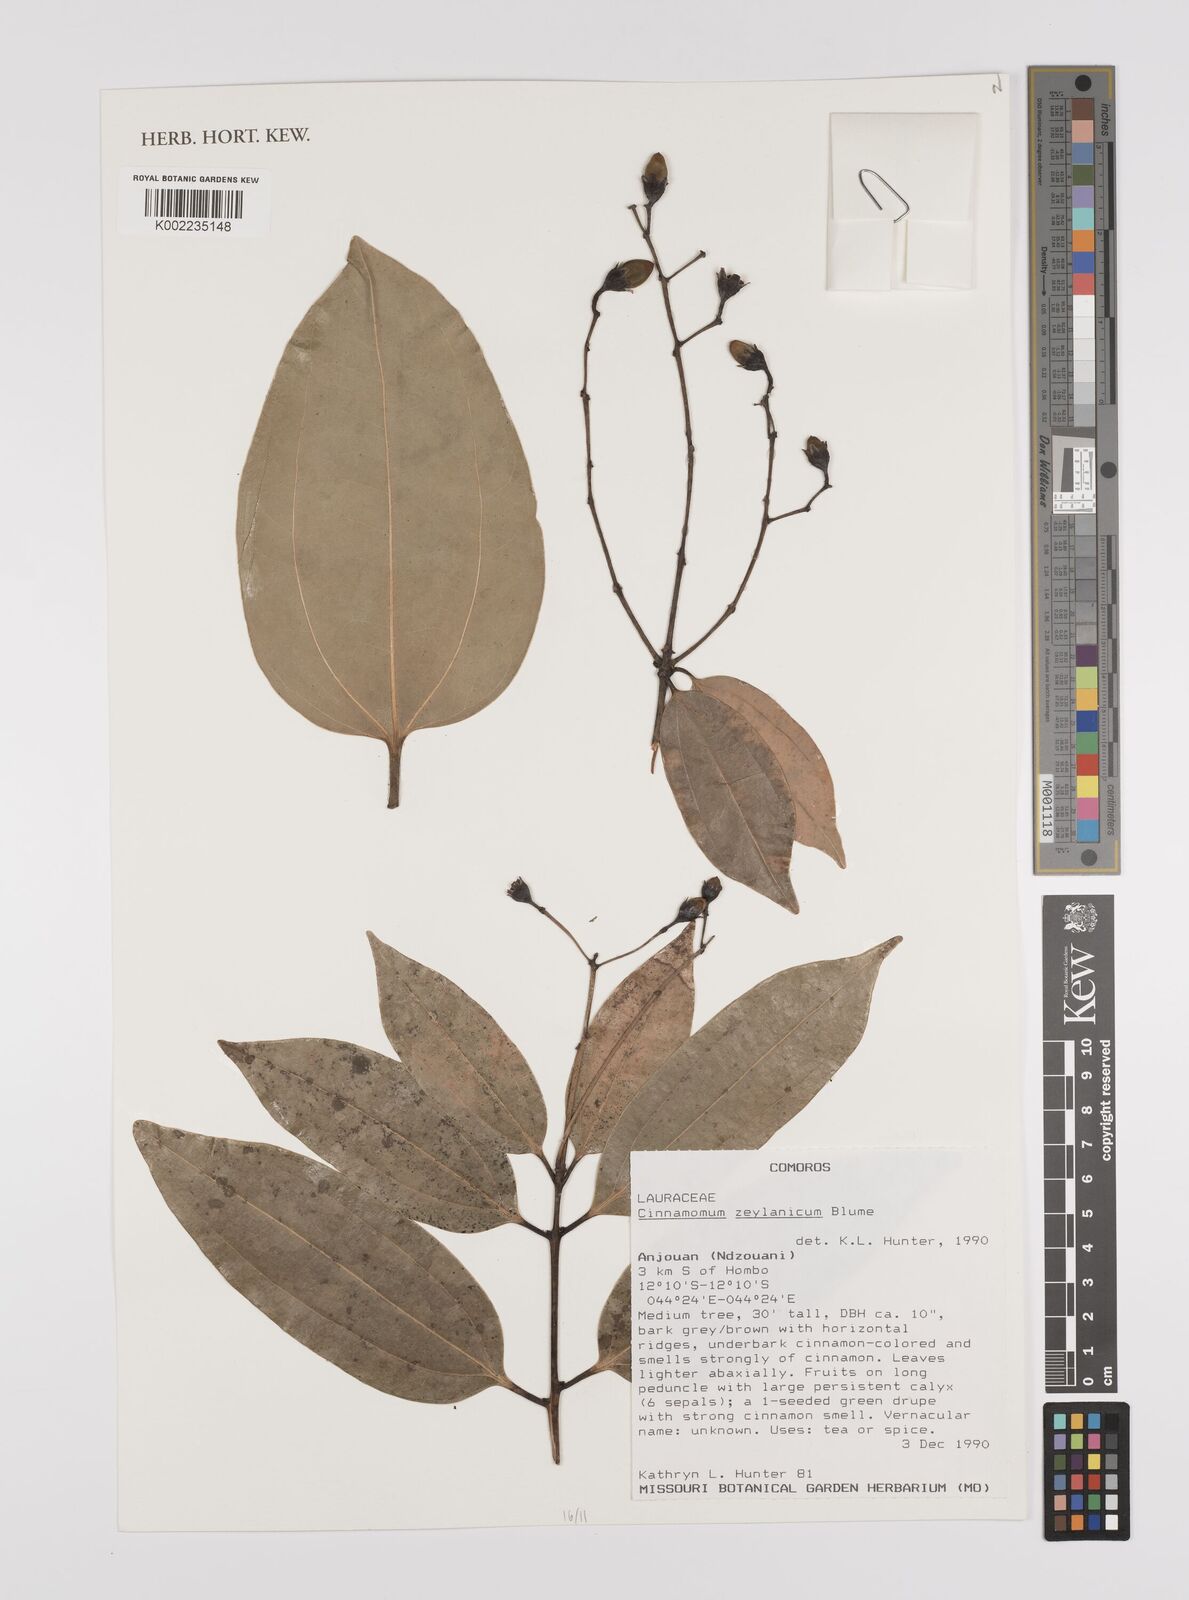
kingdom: Plantae
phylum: Tracheophyta
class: Magnoliopsida
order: Laurales
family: Lauraceae
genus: Cinnamomum
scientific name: Cinnamomum verum
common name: Cinnamon
